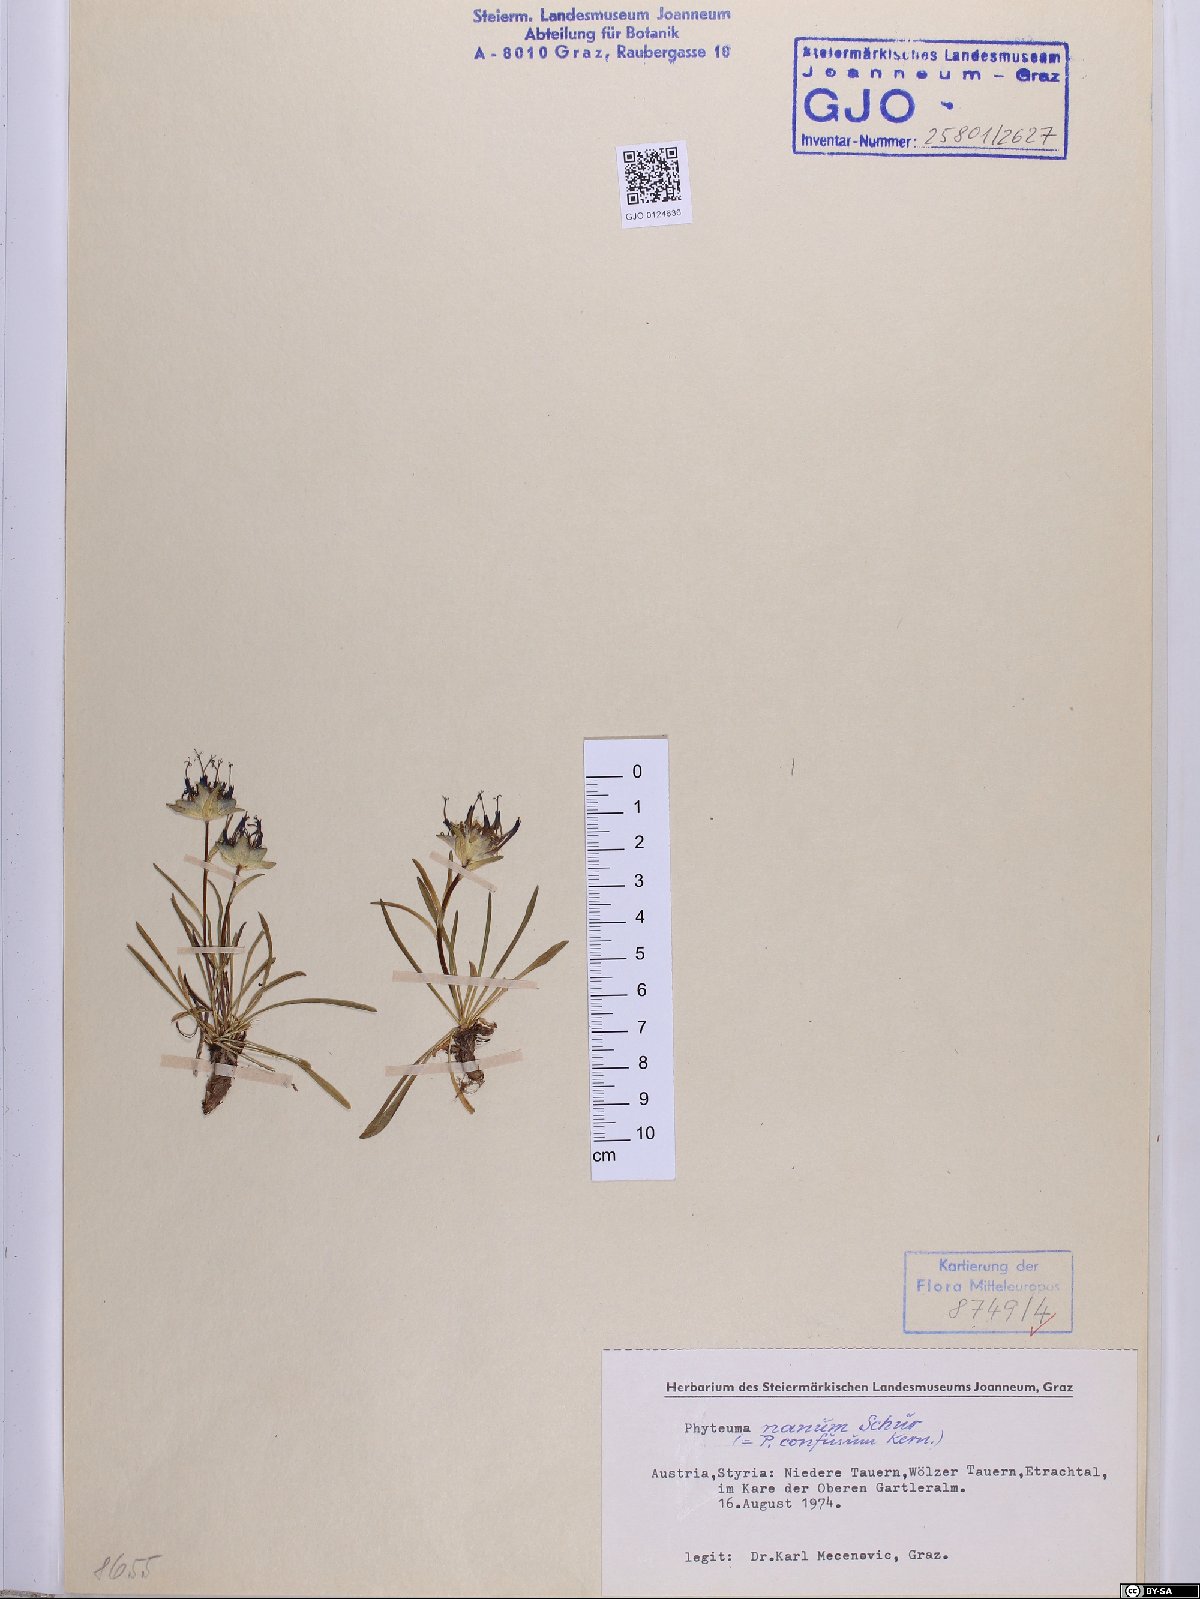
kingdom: Plantae
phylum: Tracheophyta
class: Magnoliopsida
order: Asterales
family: Campanulaceae
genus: Phyteuma
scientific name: Phyteuma globulariifolium
